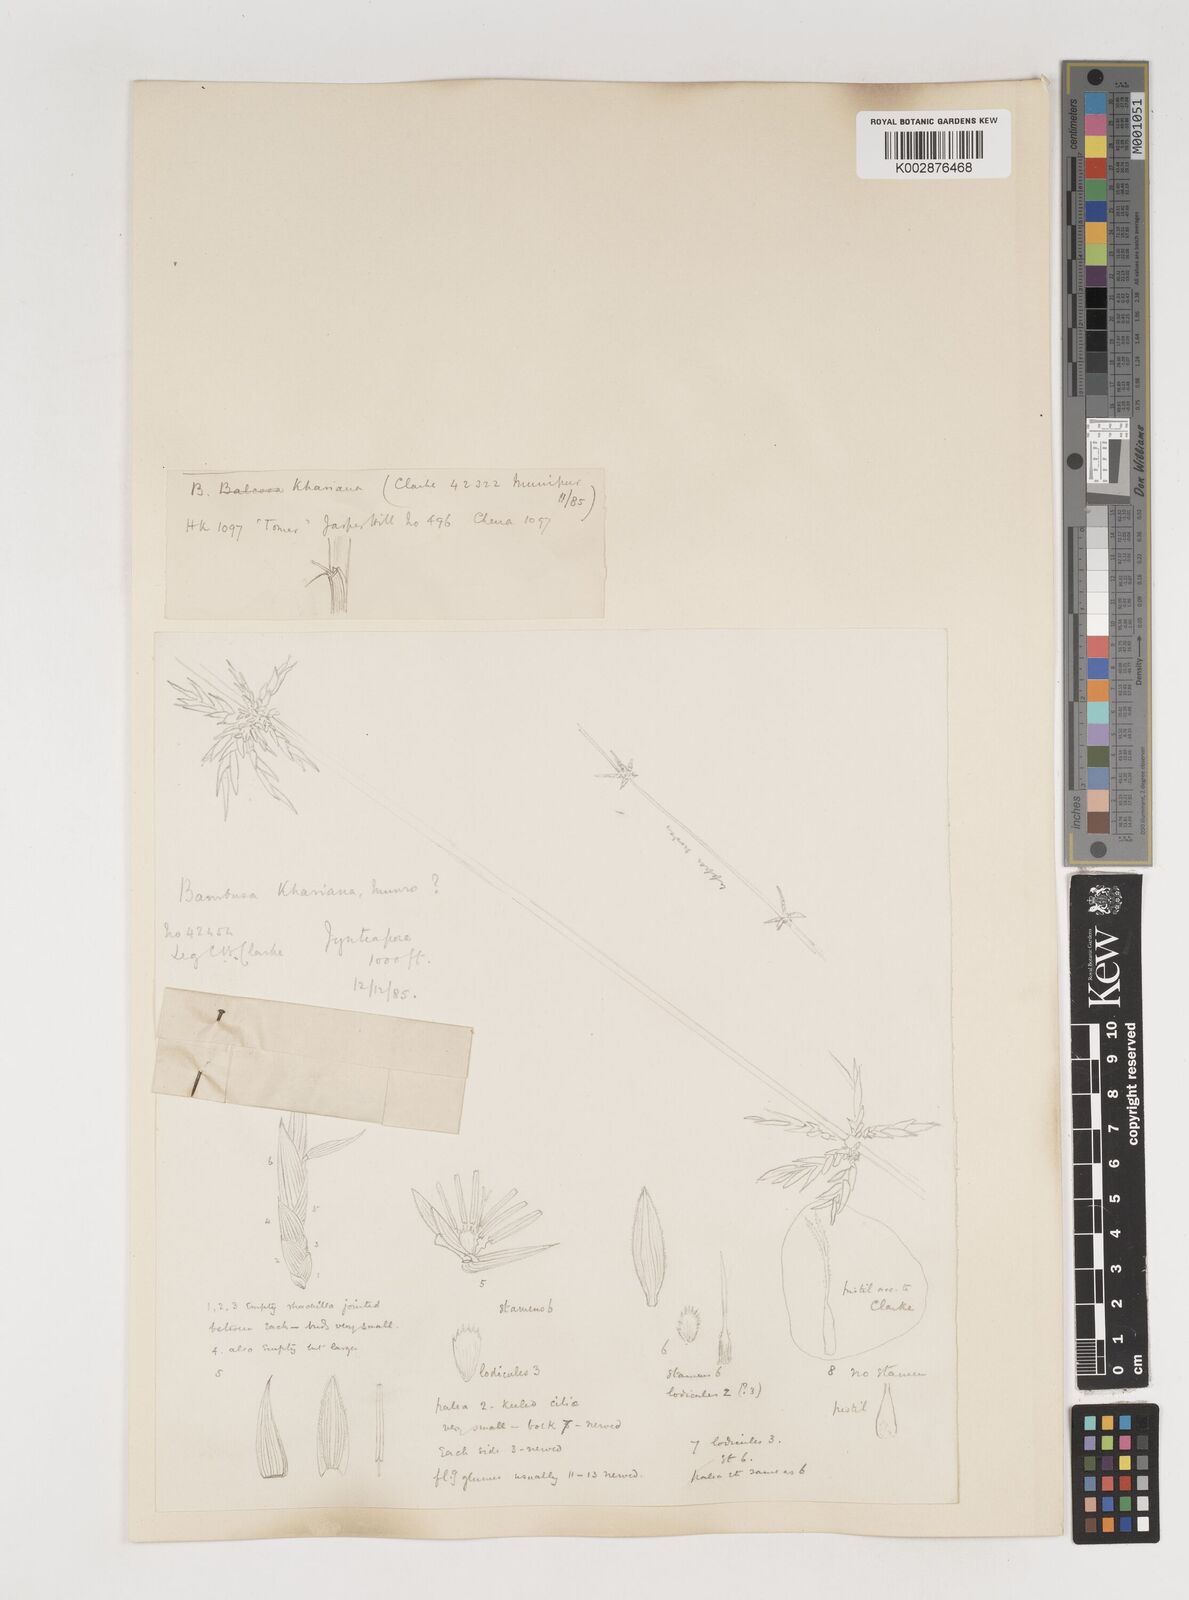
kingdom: Plantae
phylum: Tracheophyta
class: Liliopsida
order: Poales
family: Poaceae
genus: Bambusa
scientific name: Bambusa khasiana
